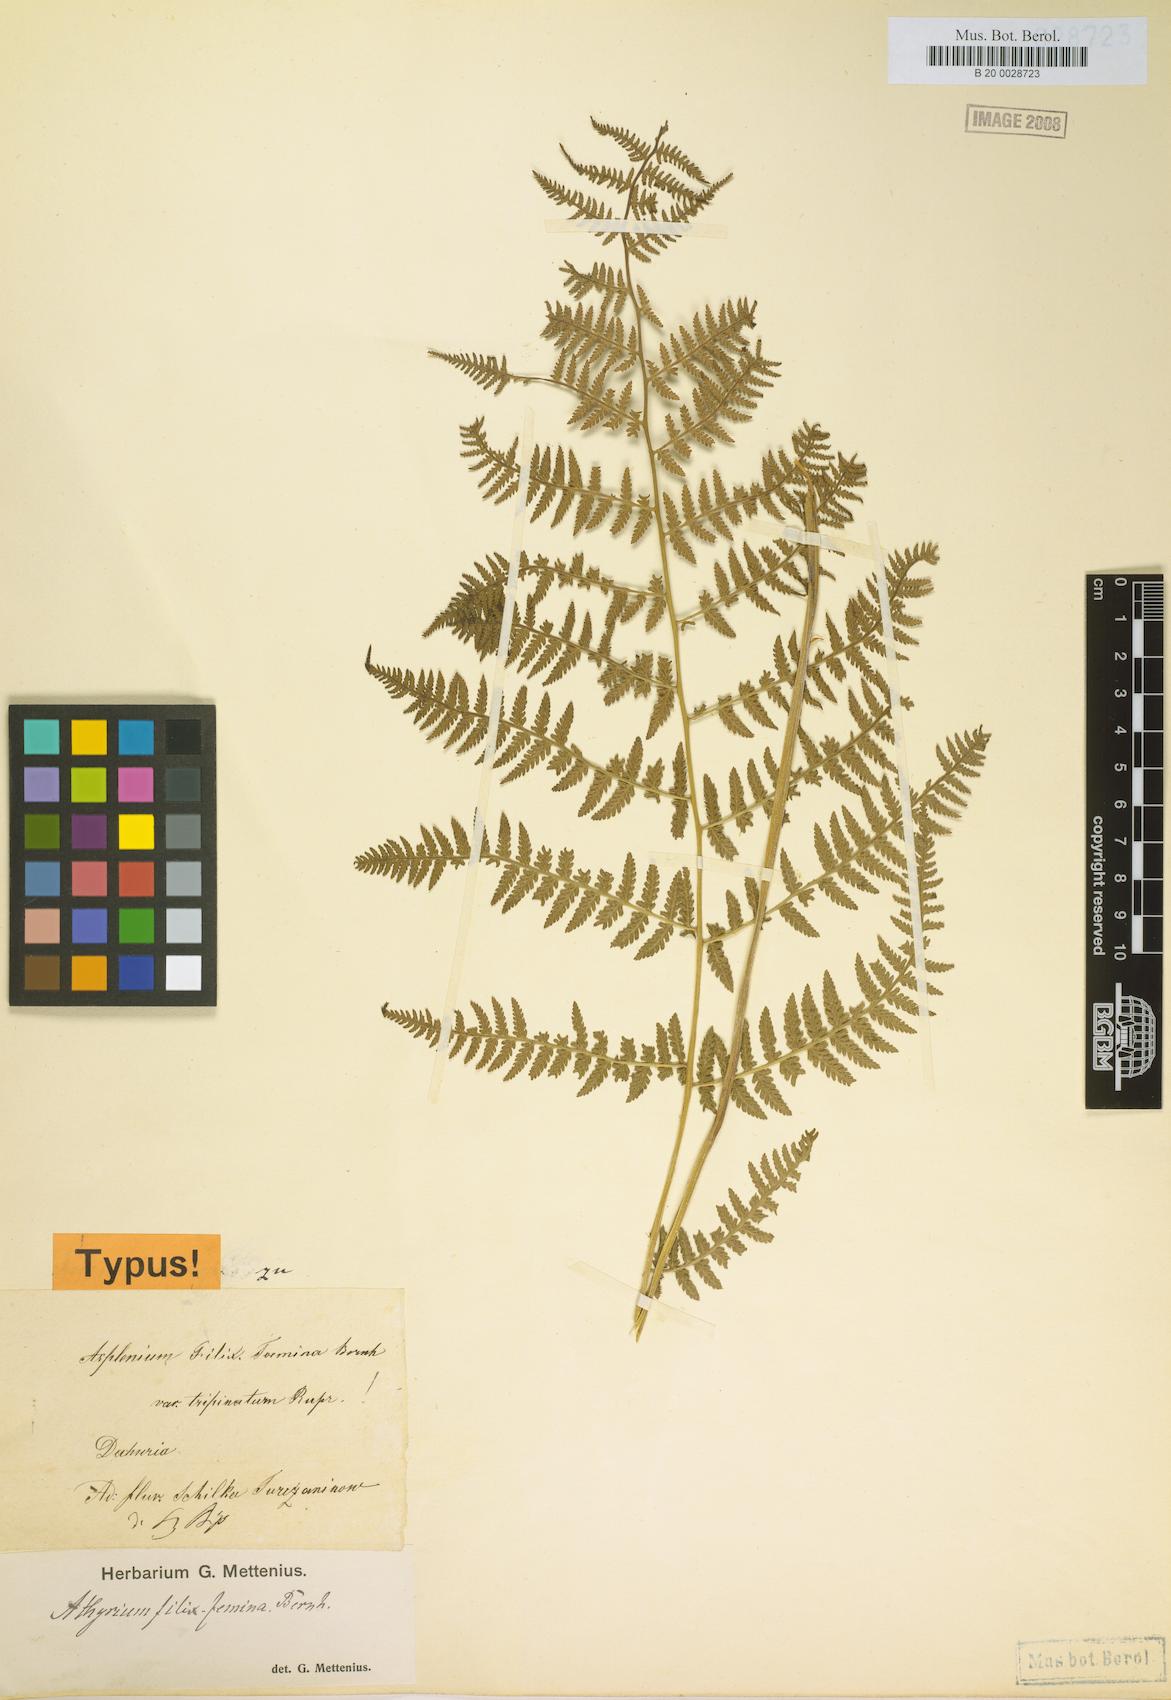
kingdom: Plantae
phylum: Tracheophyta
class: Polypodiopsida
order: Polypodiales
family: Athyriaceae
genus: Athyrium
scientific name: Athyrium filix-femina
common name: Lady fern
